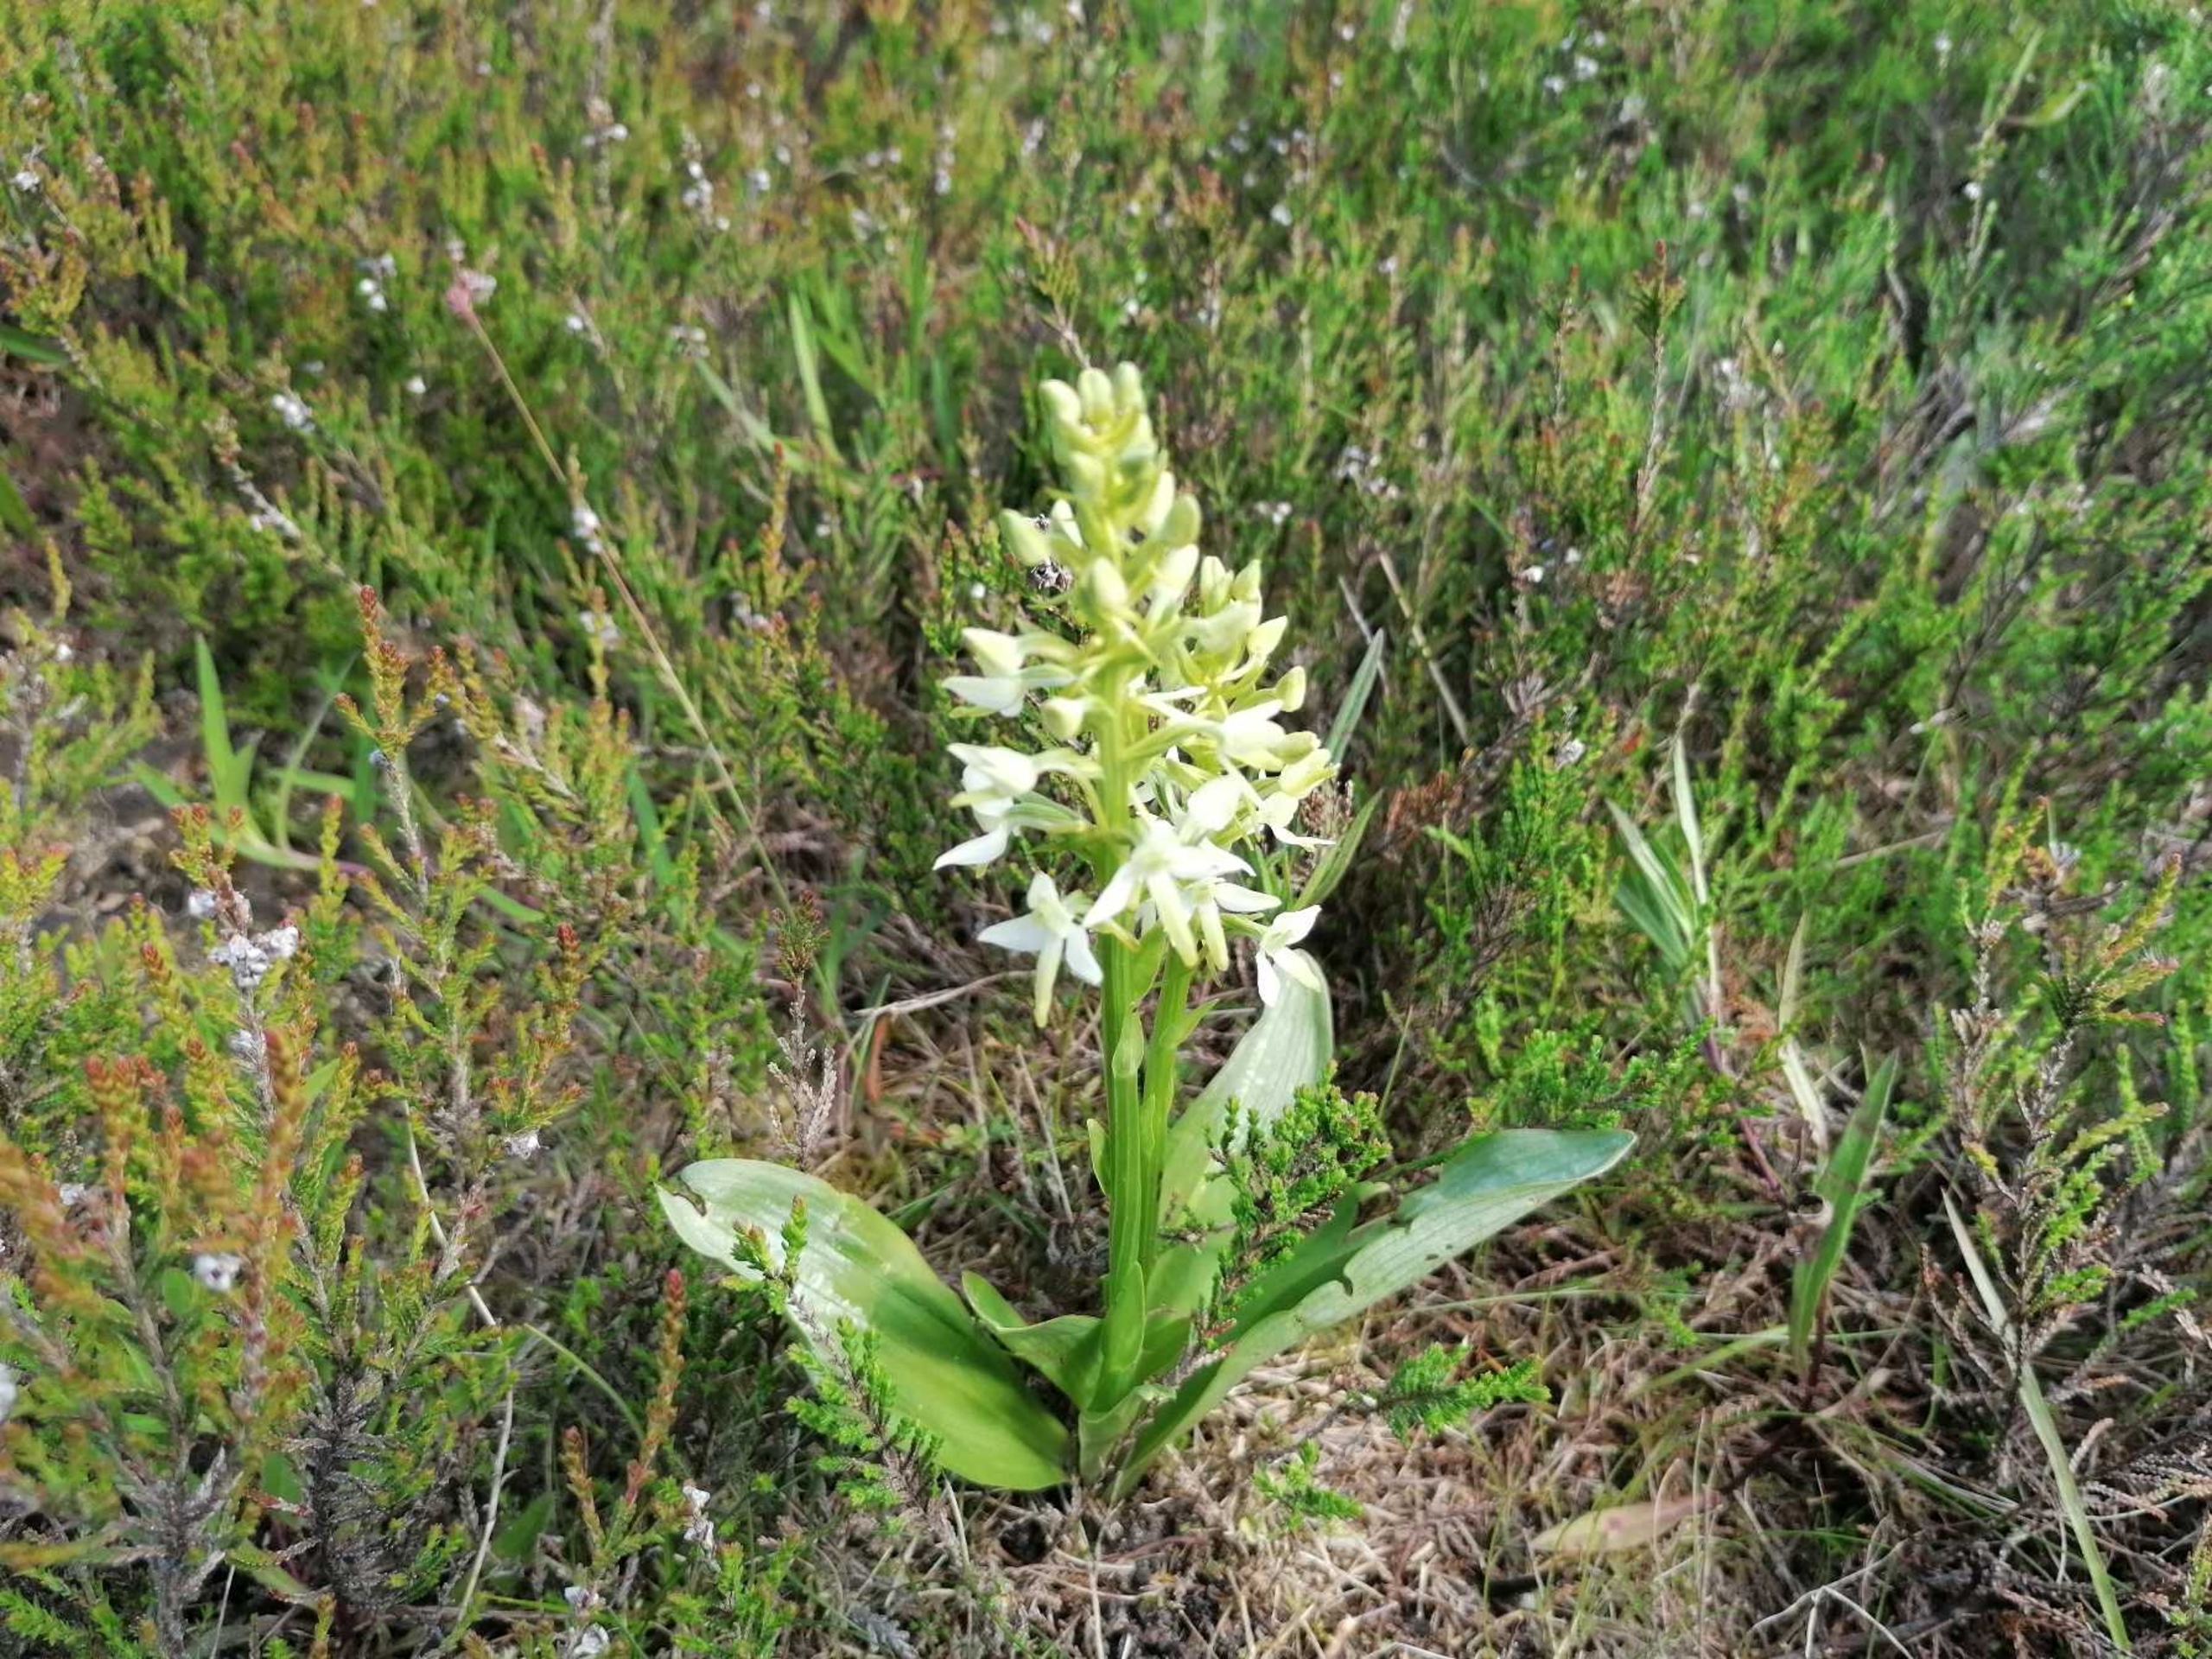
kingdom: Plantae
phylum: Tracheophyta
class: Liliopsida
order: Asparagales
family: Orchidaceae
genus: Platanthera
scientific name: Platanthera bifolia
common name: Bakke-gøgelilje
